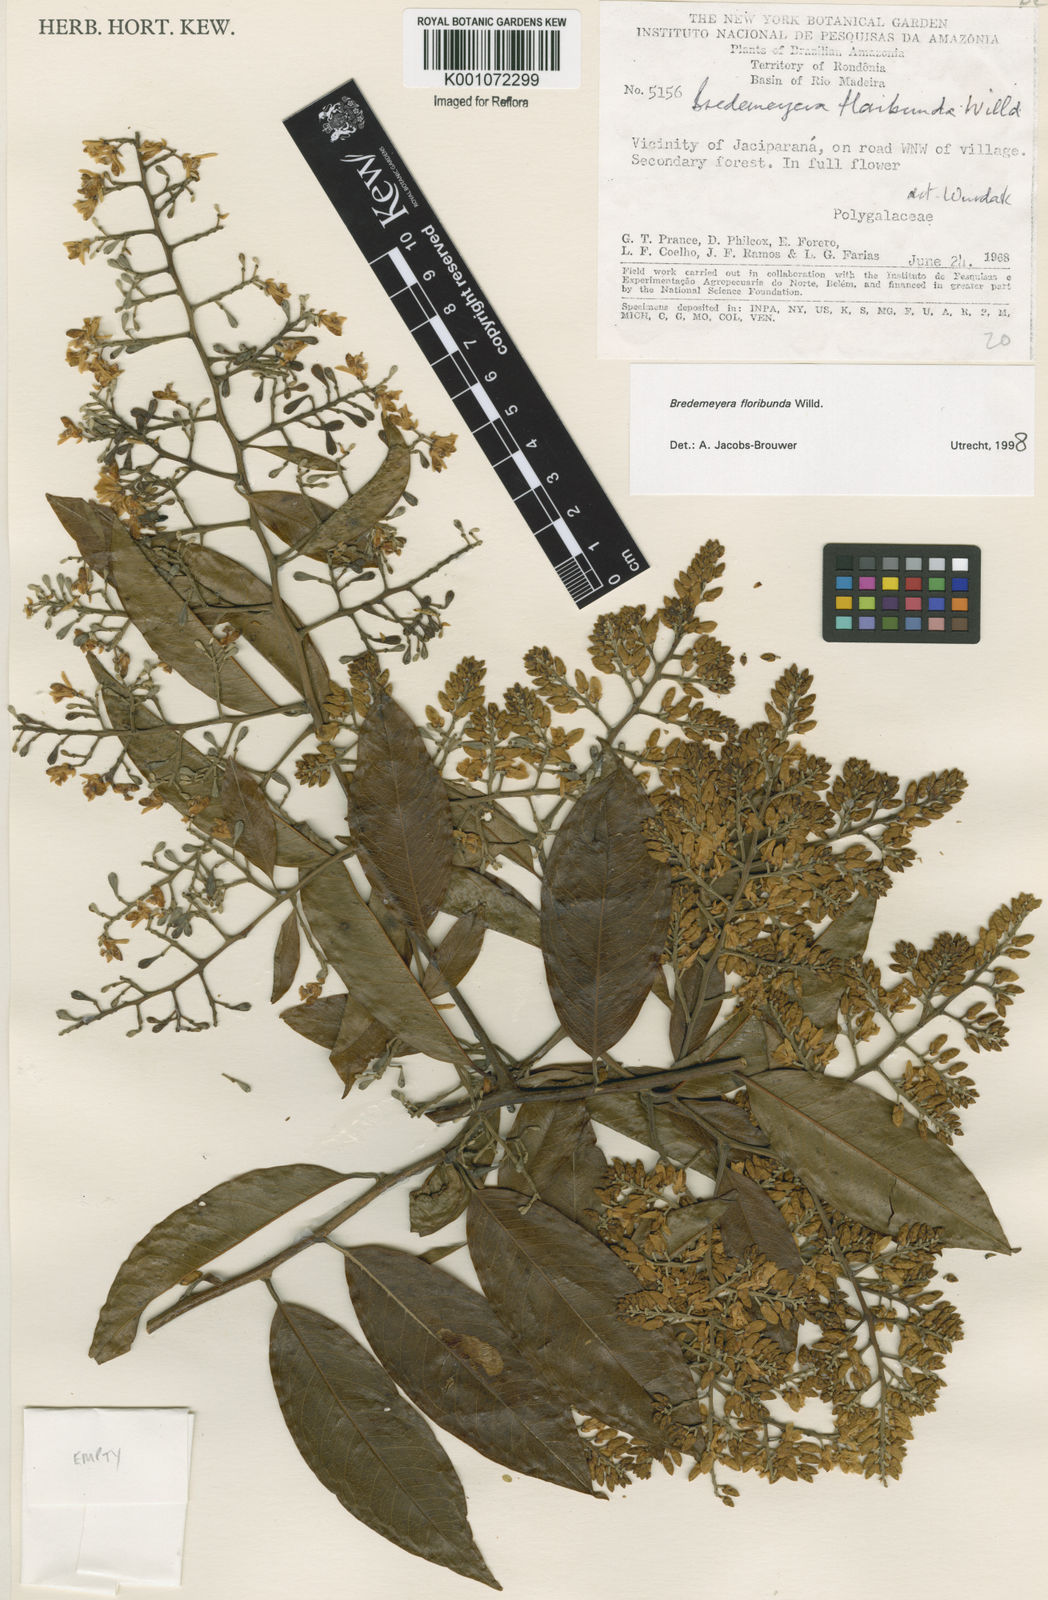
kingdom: Plantae
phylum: Tracheophyta
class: Magnoliopsida
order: Fabales
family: Polygalaceae
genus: Bredemeyera
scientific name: Bredemeyera floribunda
